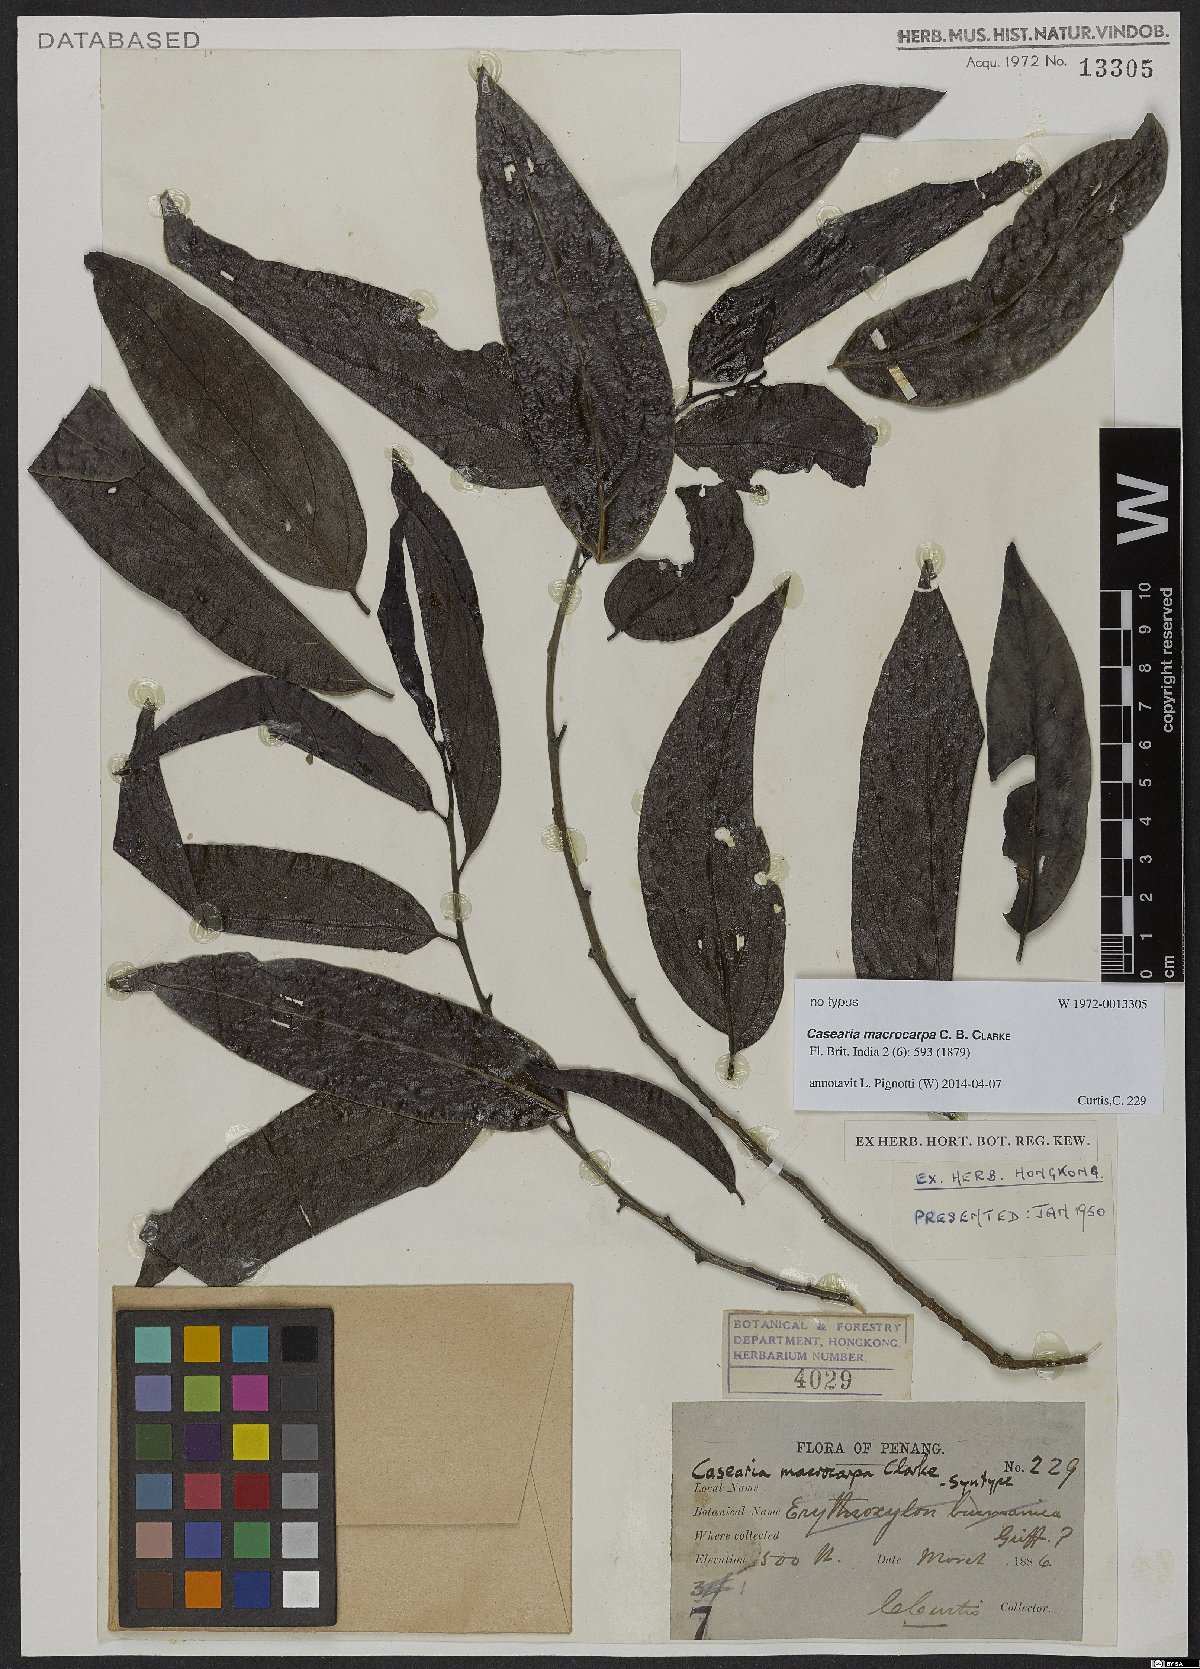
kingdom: Plantae
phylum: Tracheophyta
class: Magnoliopsida
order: Malpighiales
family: Salicaceae
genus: Casearia
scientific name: Casearia macrocarpa
